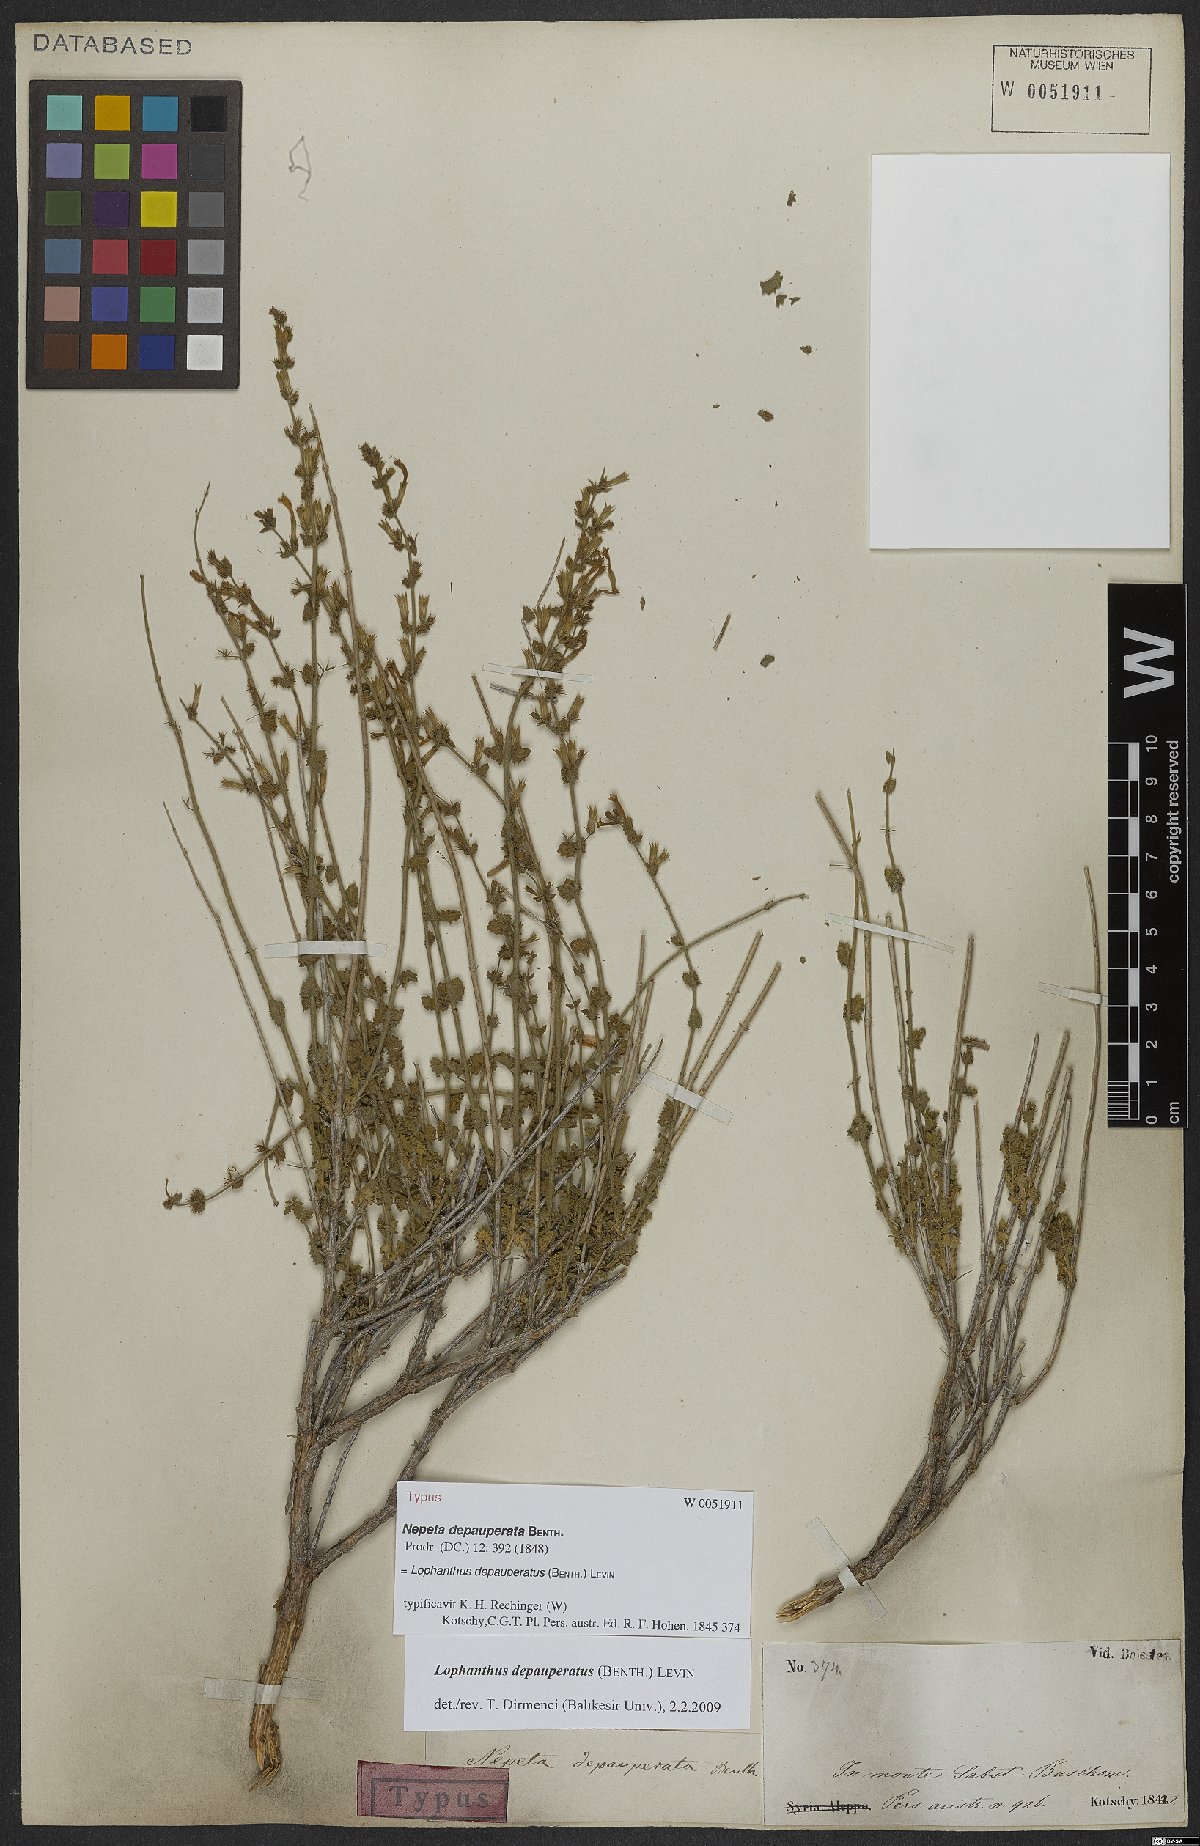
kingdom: Plantae
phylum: Tracheophyta
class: Magnoliopsida
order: Lamiales
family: Lamiaceae
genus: Nepeta
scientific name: Nepeta depauperata
